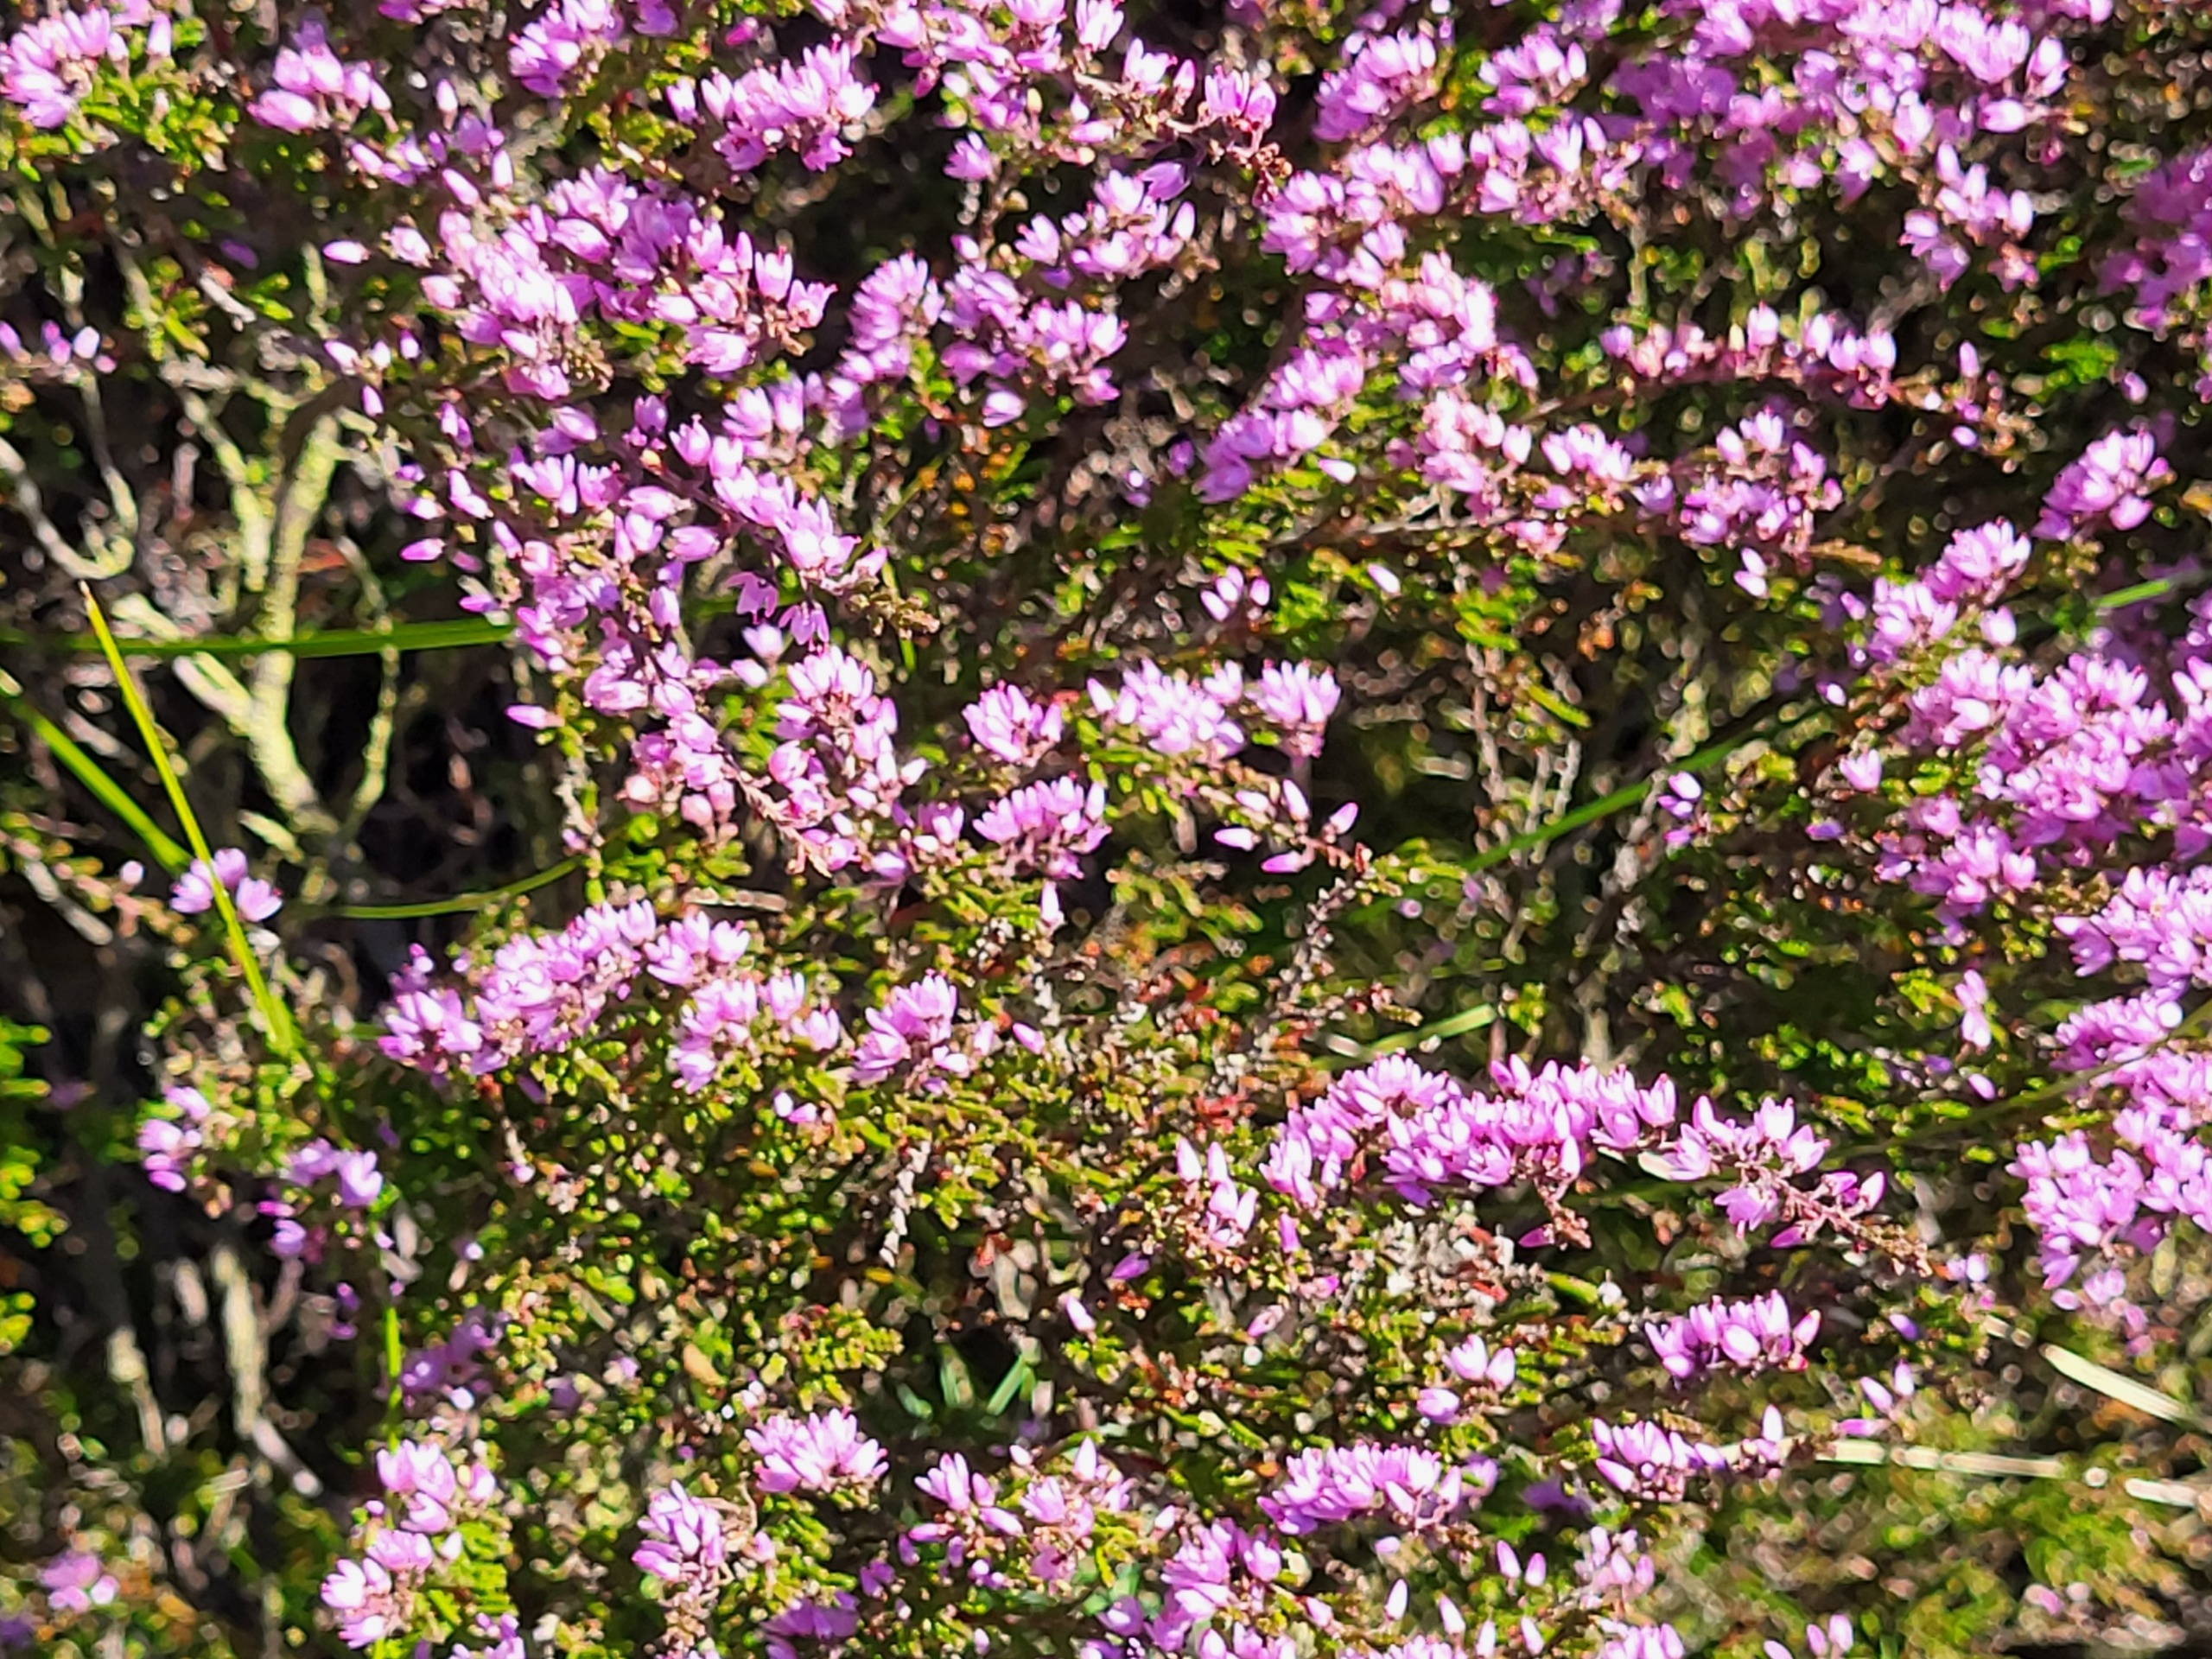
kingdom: Plantae
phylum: Tracheophyta
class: Magnoliopsida
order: Ericales
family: Ericaceae
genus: Calluna
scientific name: Calluna vulgaris
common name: Hedelyng
